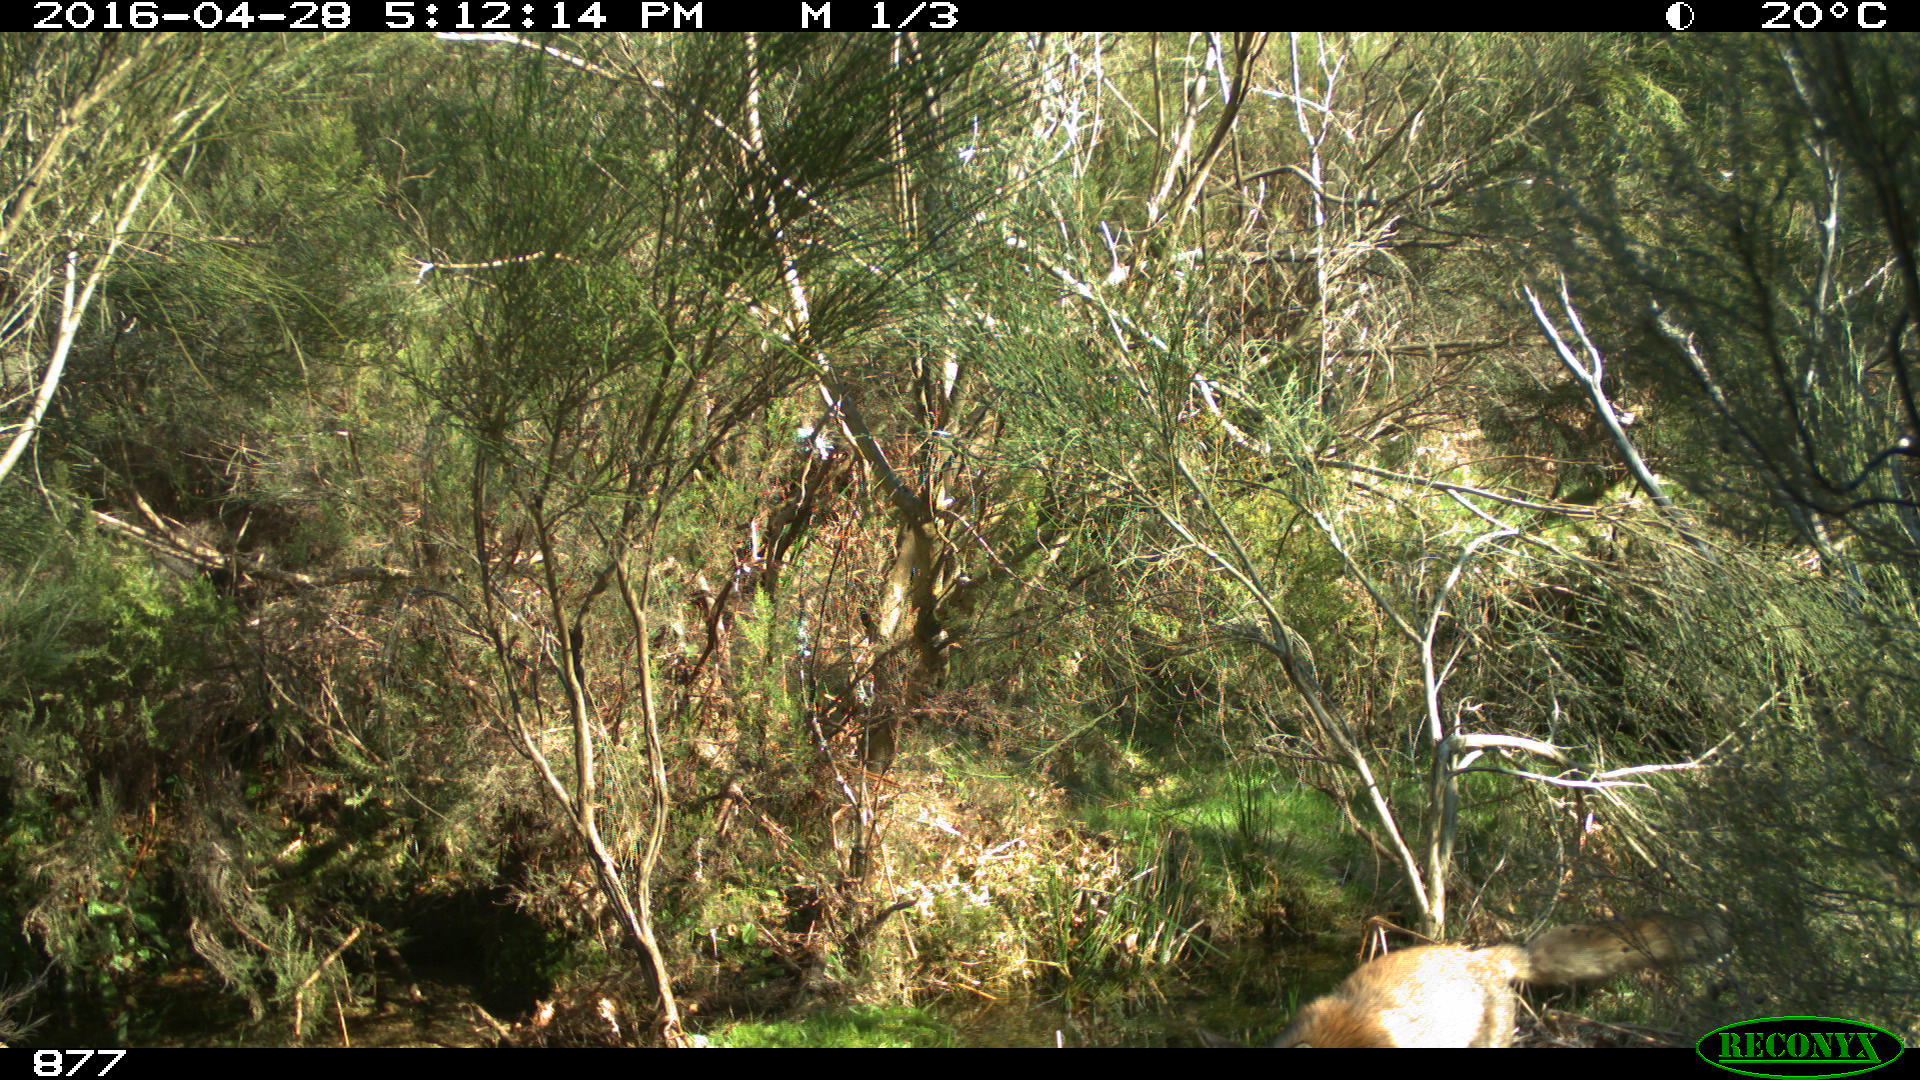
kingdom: Animalia
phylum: Chordata
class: Mammalia
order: Carnivora
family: Canidae
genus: Vulpes
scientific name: Vulpes vulpes
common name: Red fox
